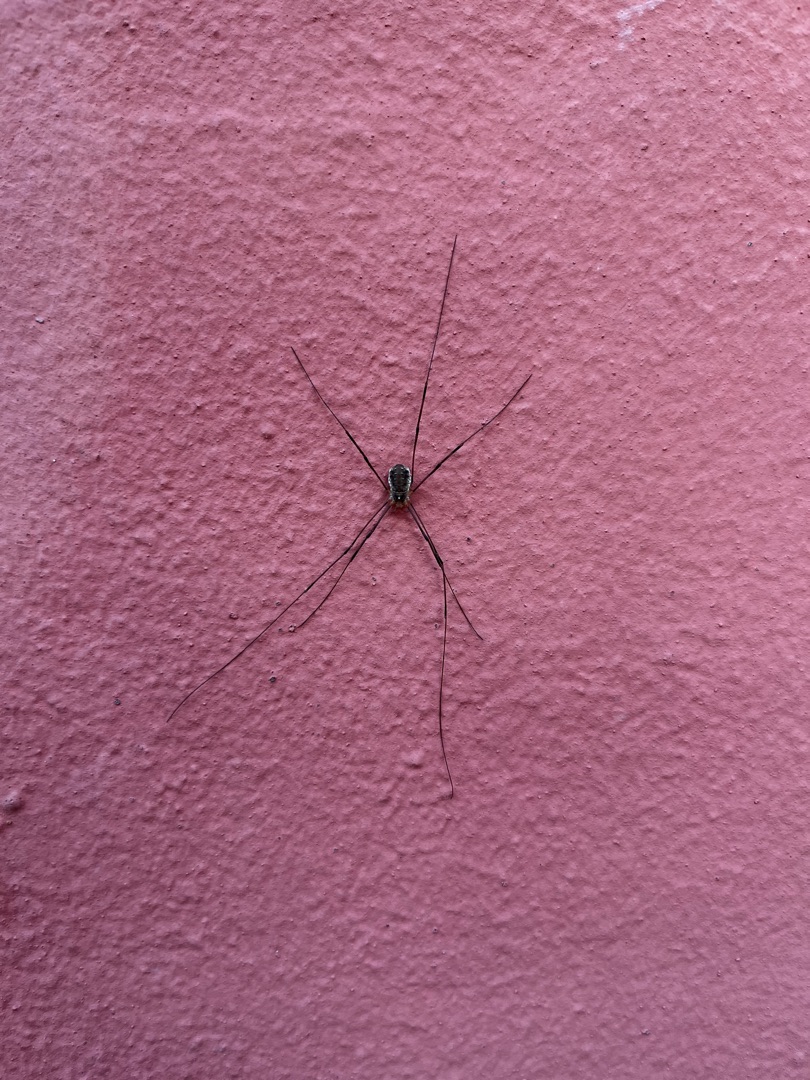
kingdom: Animalia
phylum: Arthropoda
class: Arachnida
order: Opiliones
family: Phalangiidae
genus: Opilio
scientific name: Opilio canestrinii
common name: Orange vægmejer
